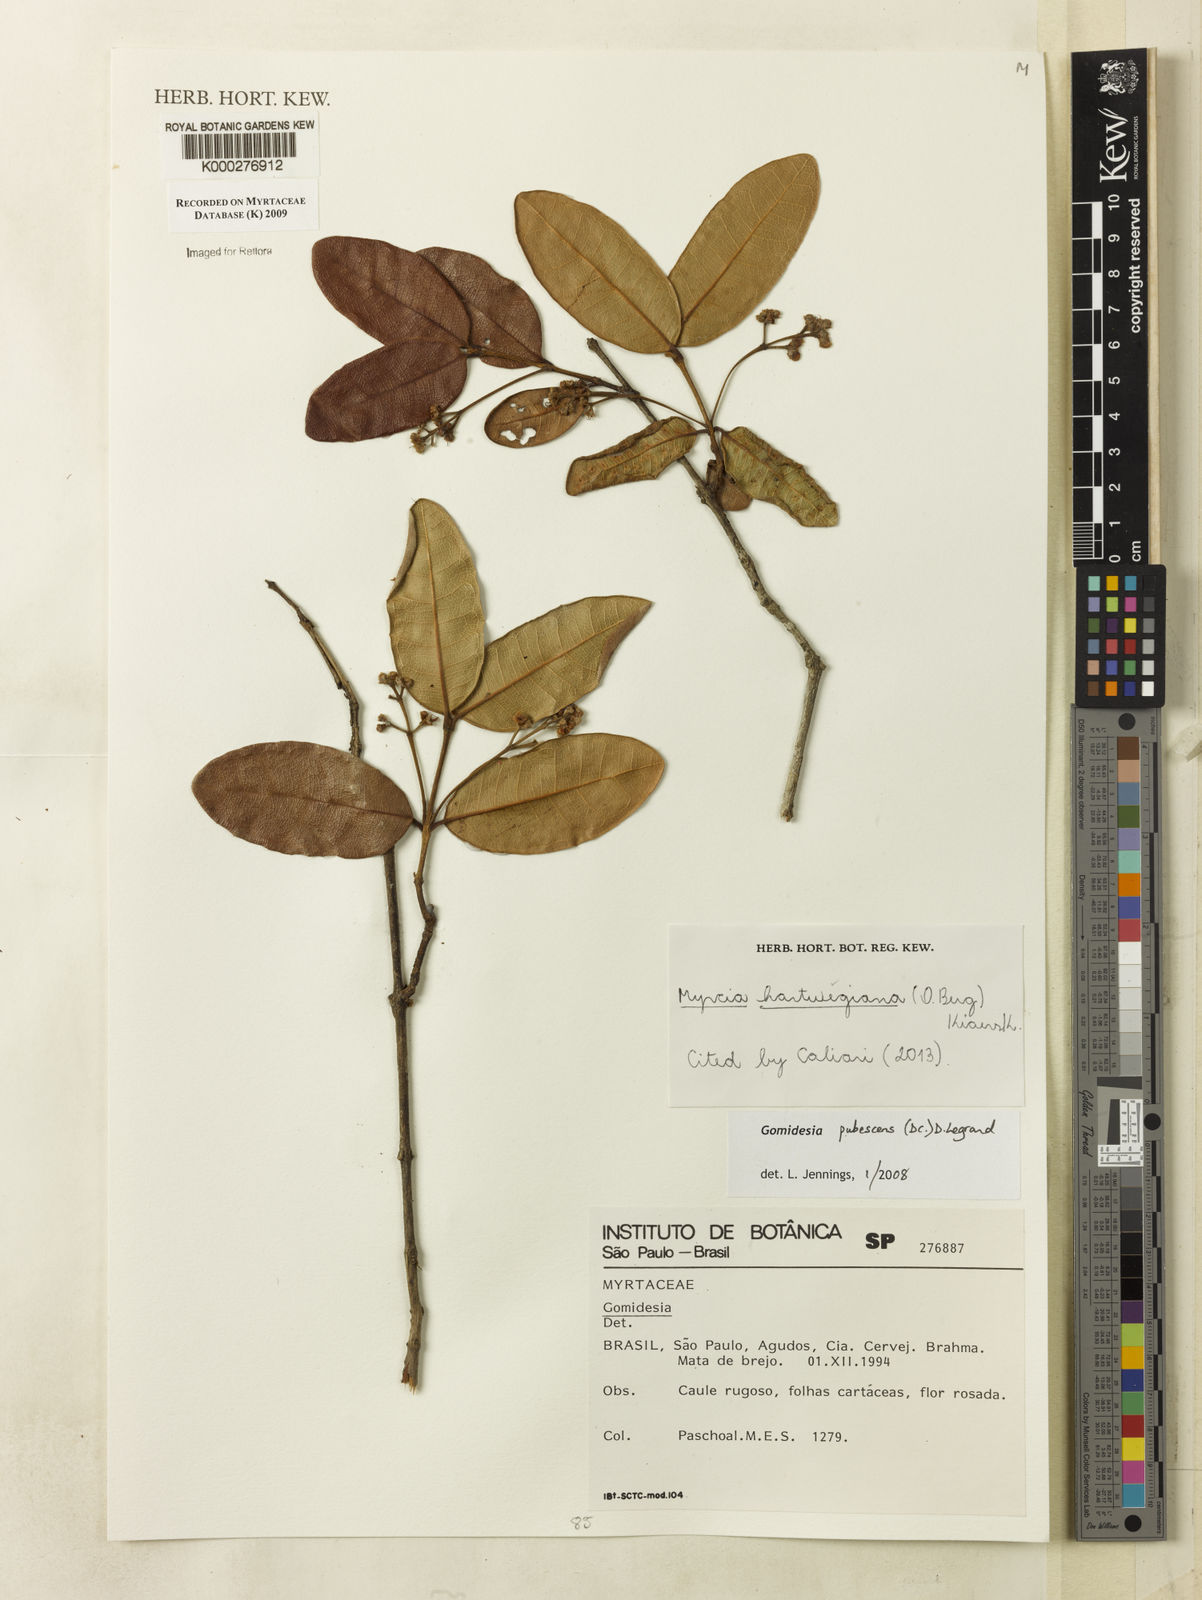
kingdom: Plantae
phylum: Tracheophyta
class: Magnoliopsida
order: Myrtales
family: Myrtaceae
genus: Myrcia
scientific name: Myrcia pubescens
